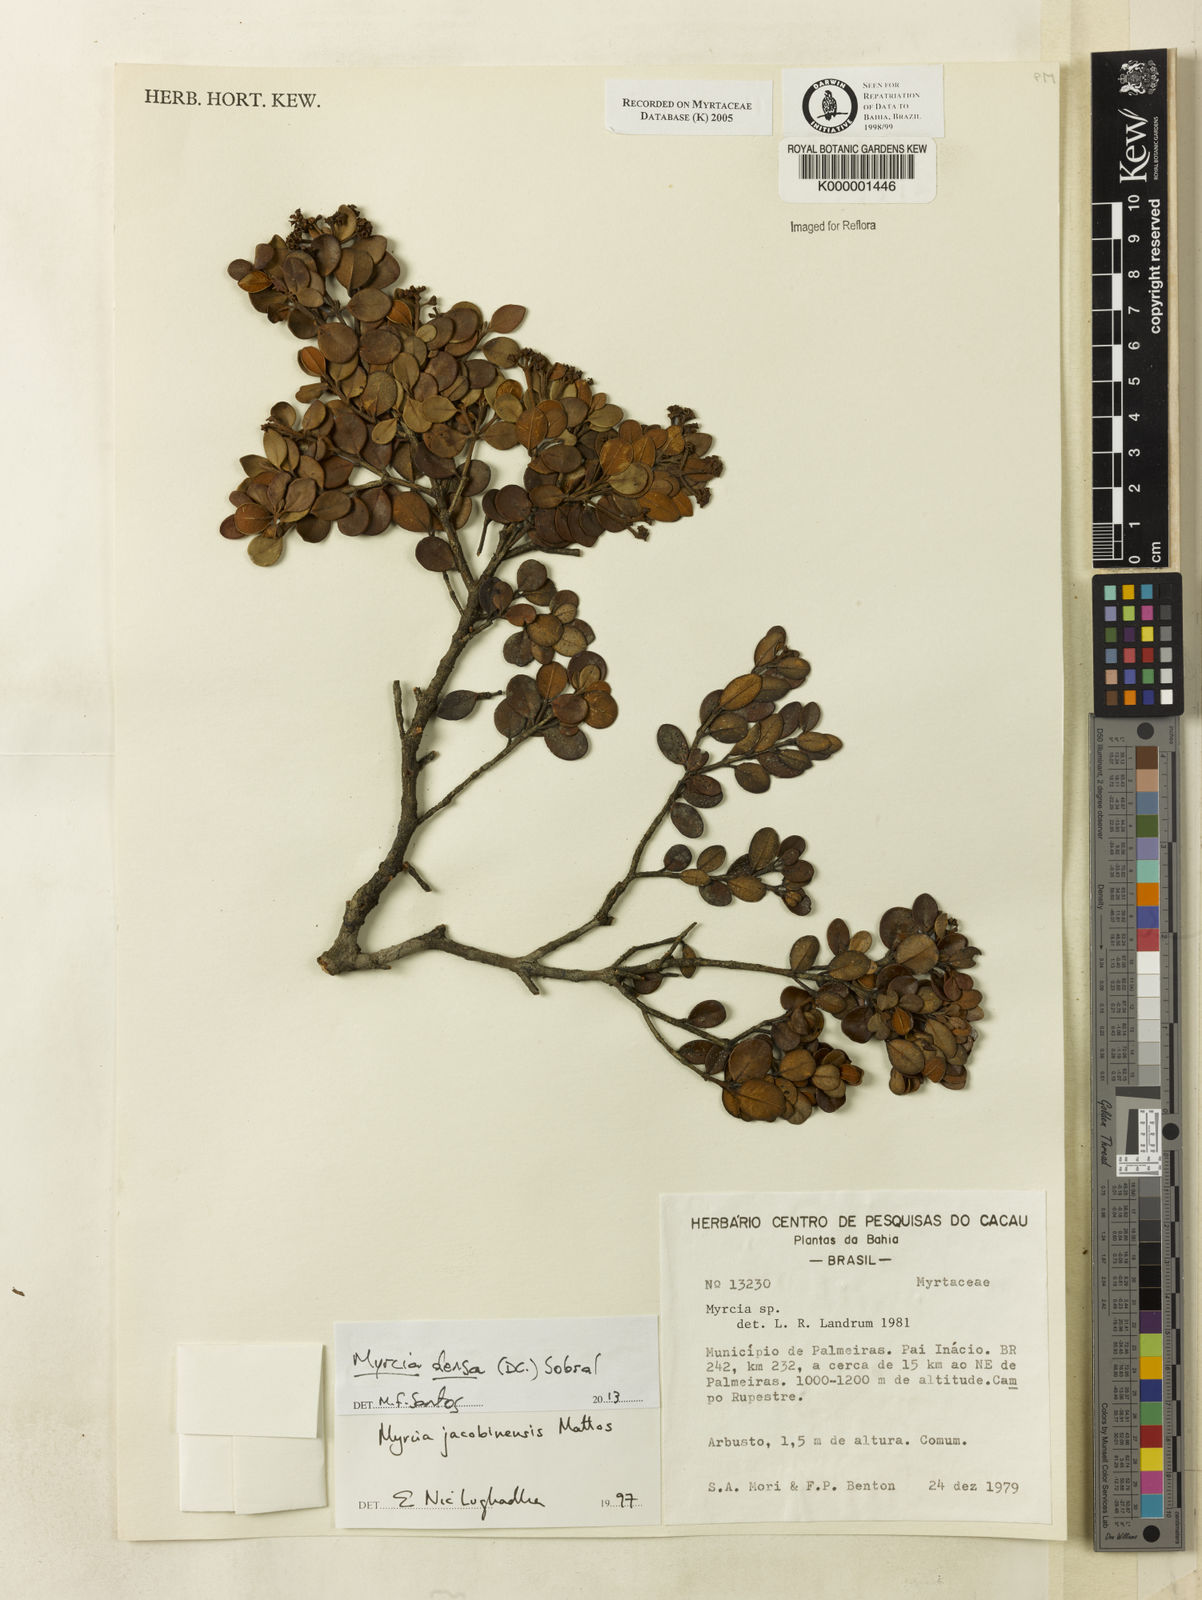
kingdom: Plantae
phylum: Tracheophyta
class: Magnoliopsida
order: Myrtales
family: Myrtaceae
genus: Myrcia
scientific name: Myrcia jacobinensis
